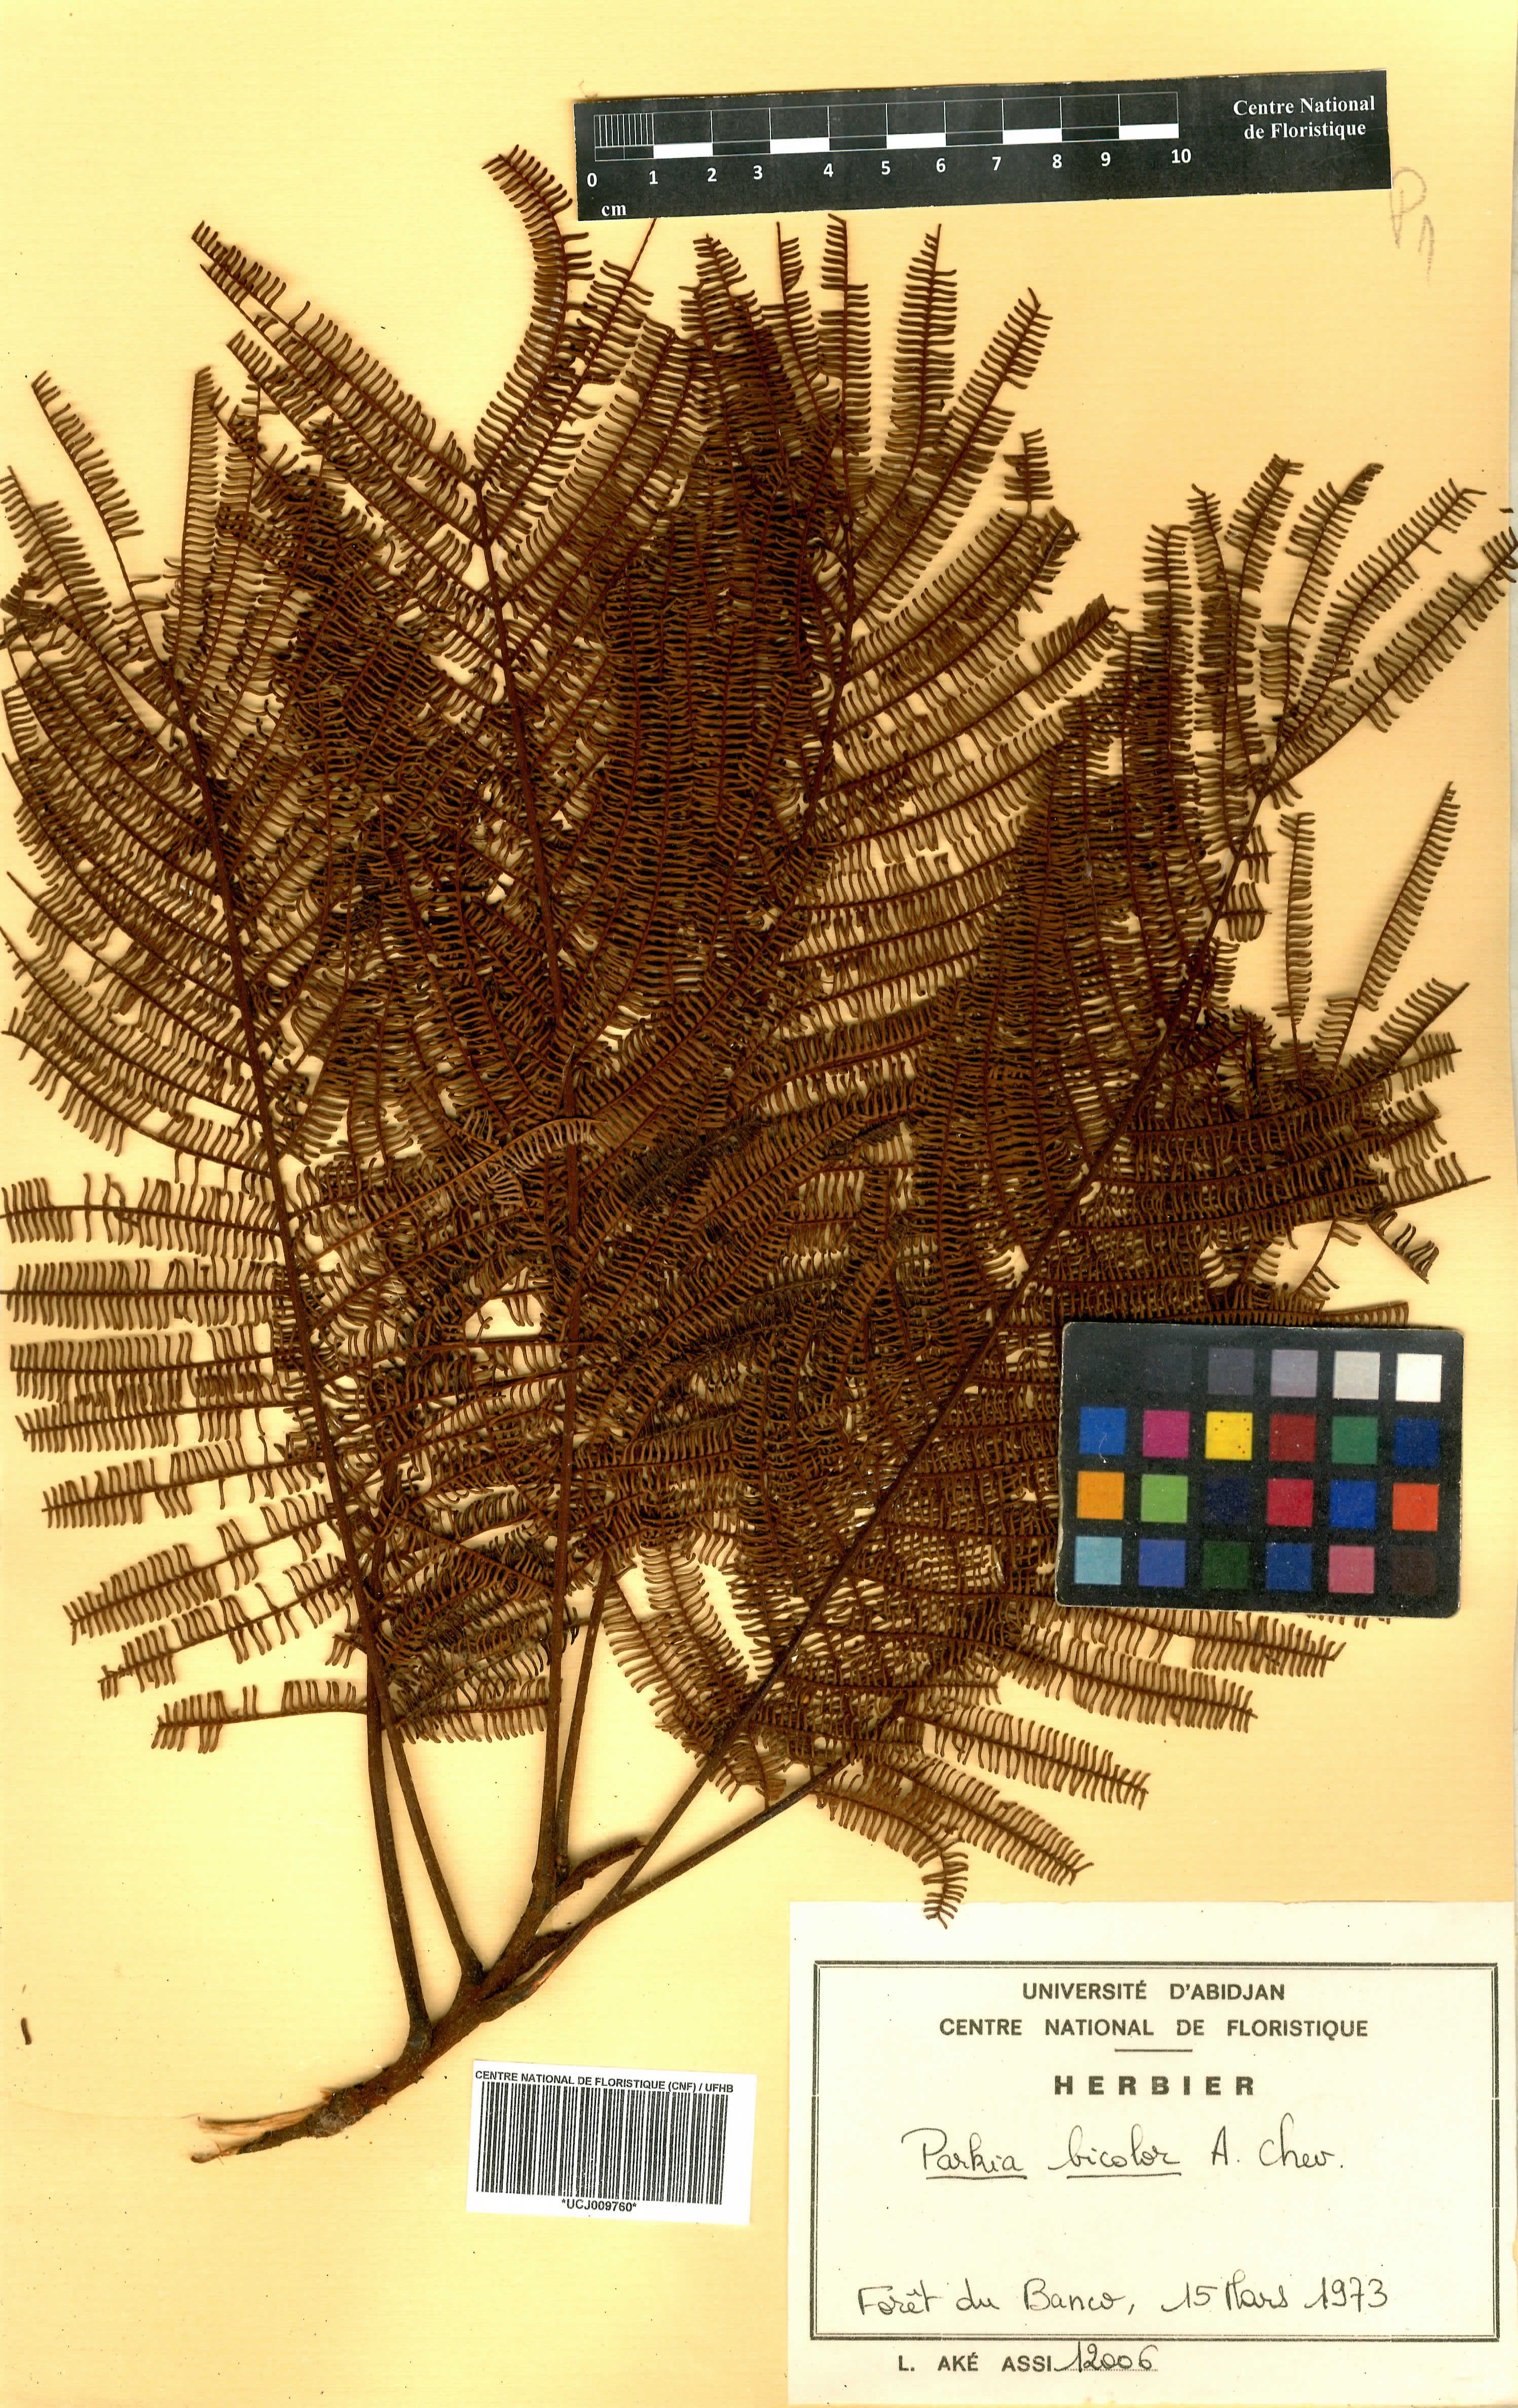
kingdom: Plantae
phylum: Tracheophyta
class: Magnoliopsida
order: Fabales
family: Fabaceae
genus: Parkia
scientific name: Parkia bicolor
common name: African locust-bean
